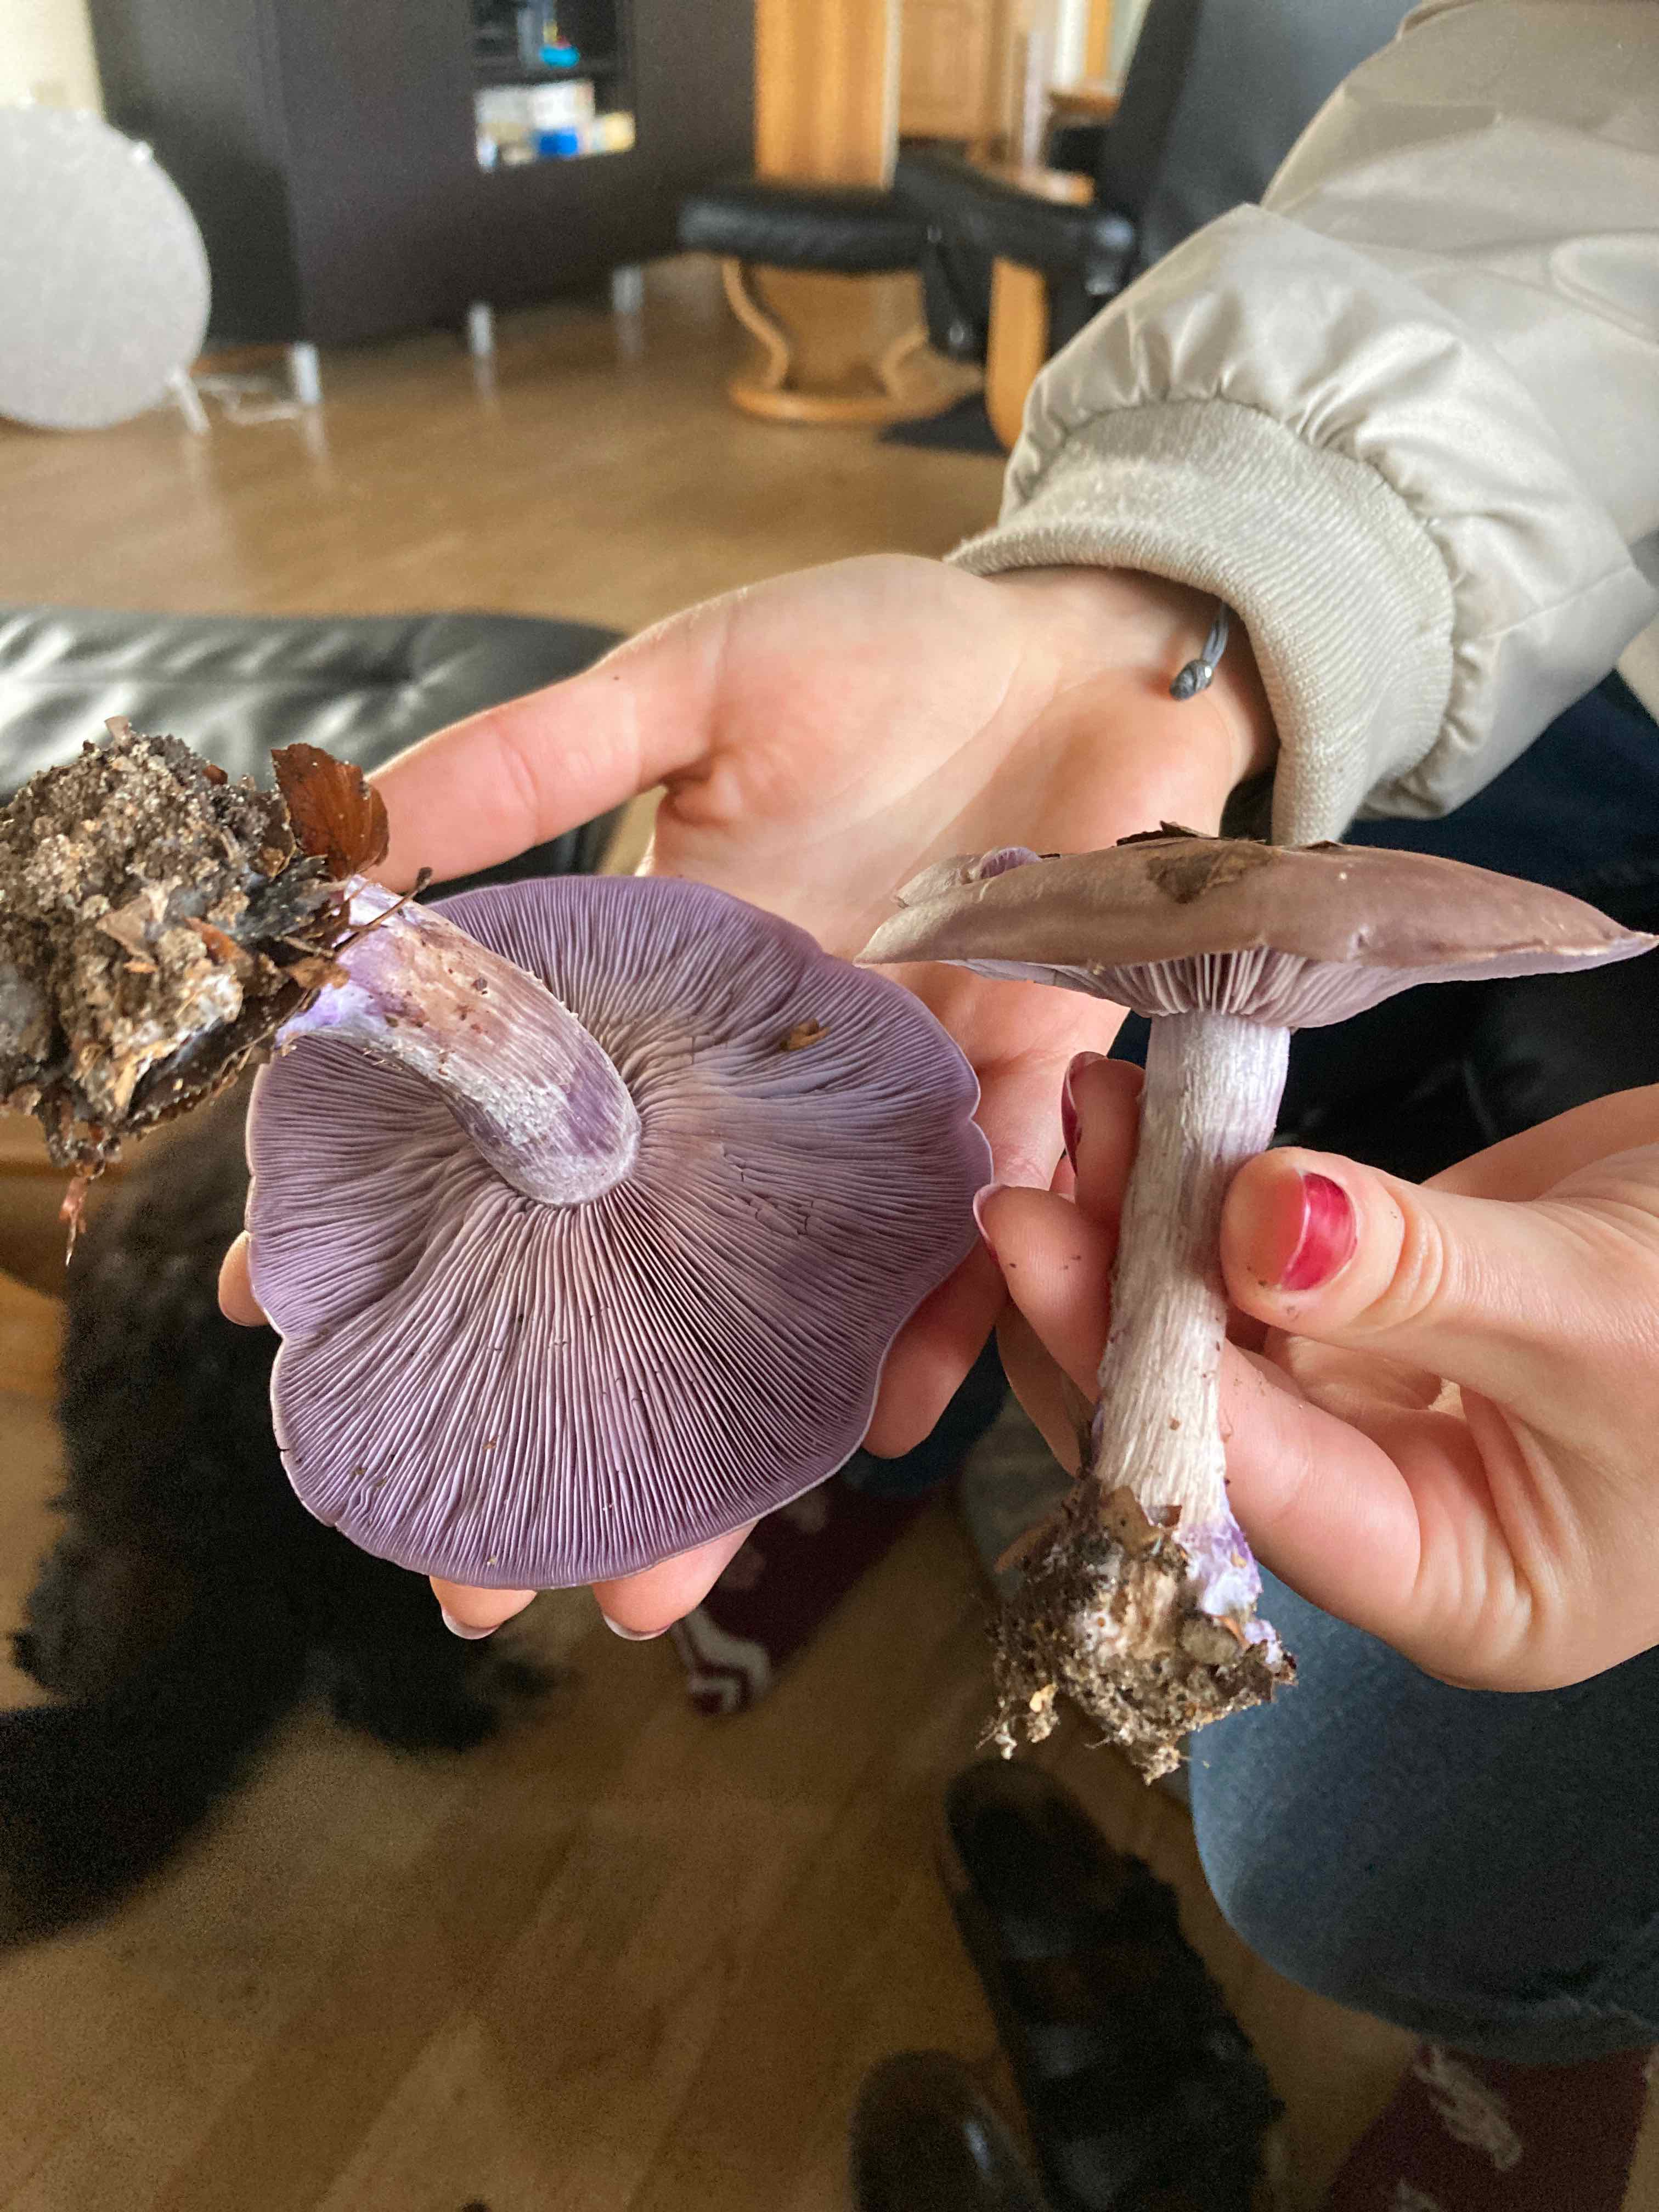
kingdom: Fungi
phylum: Basidiomycota
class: Agaricomycetes
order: Agaricales
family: Tricholomataceae
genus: Lepista
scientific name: Lepista nuda
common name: violet hekseringshat
